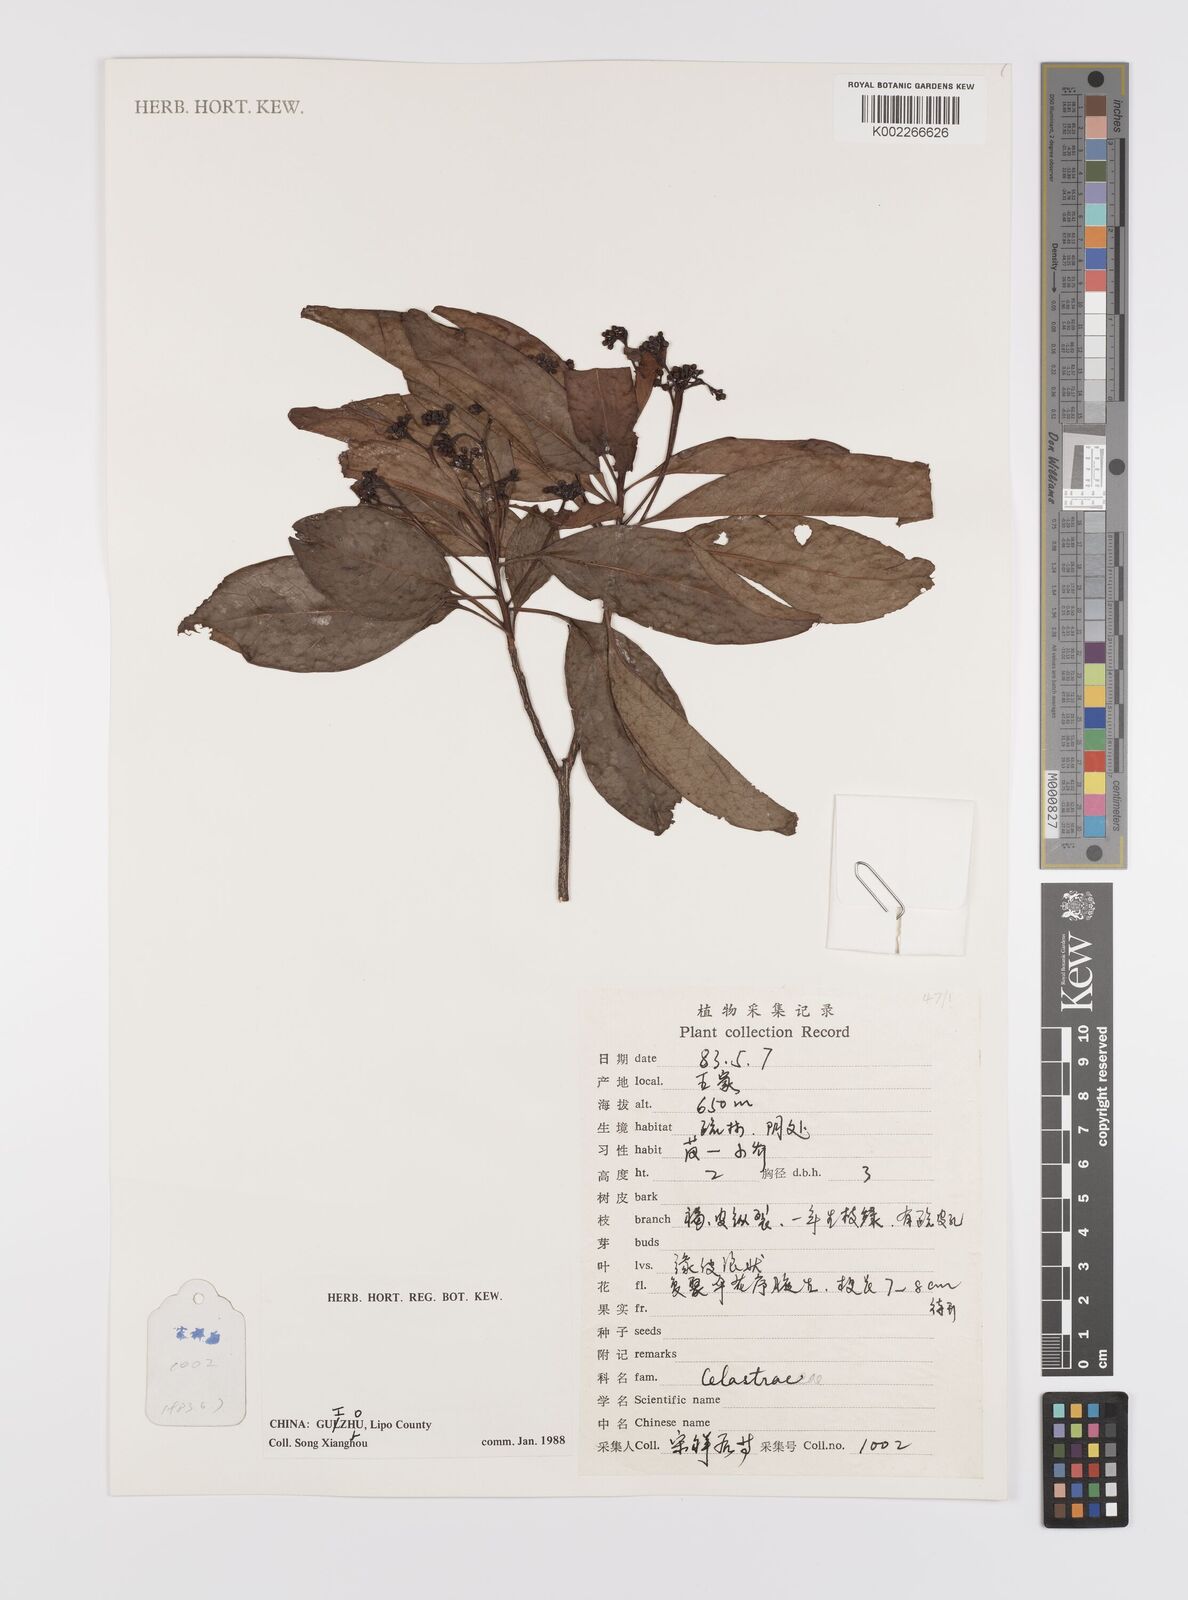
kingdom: Plantae
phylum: Tracheophyta
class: Magnoliopsida
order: Celastrales
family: Celastraceae
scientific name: Celastraceae
